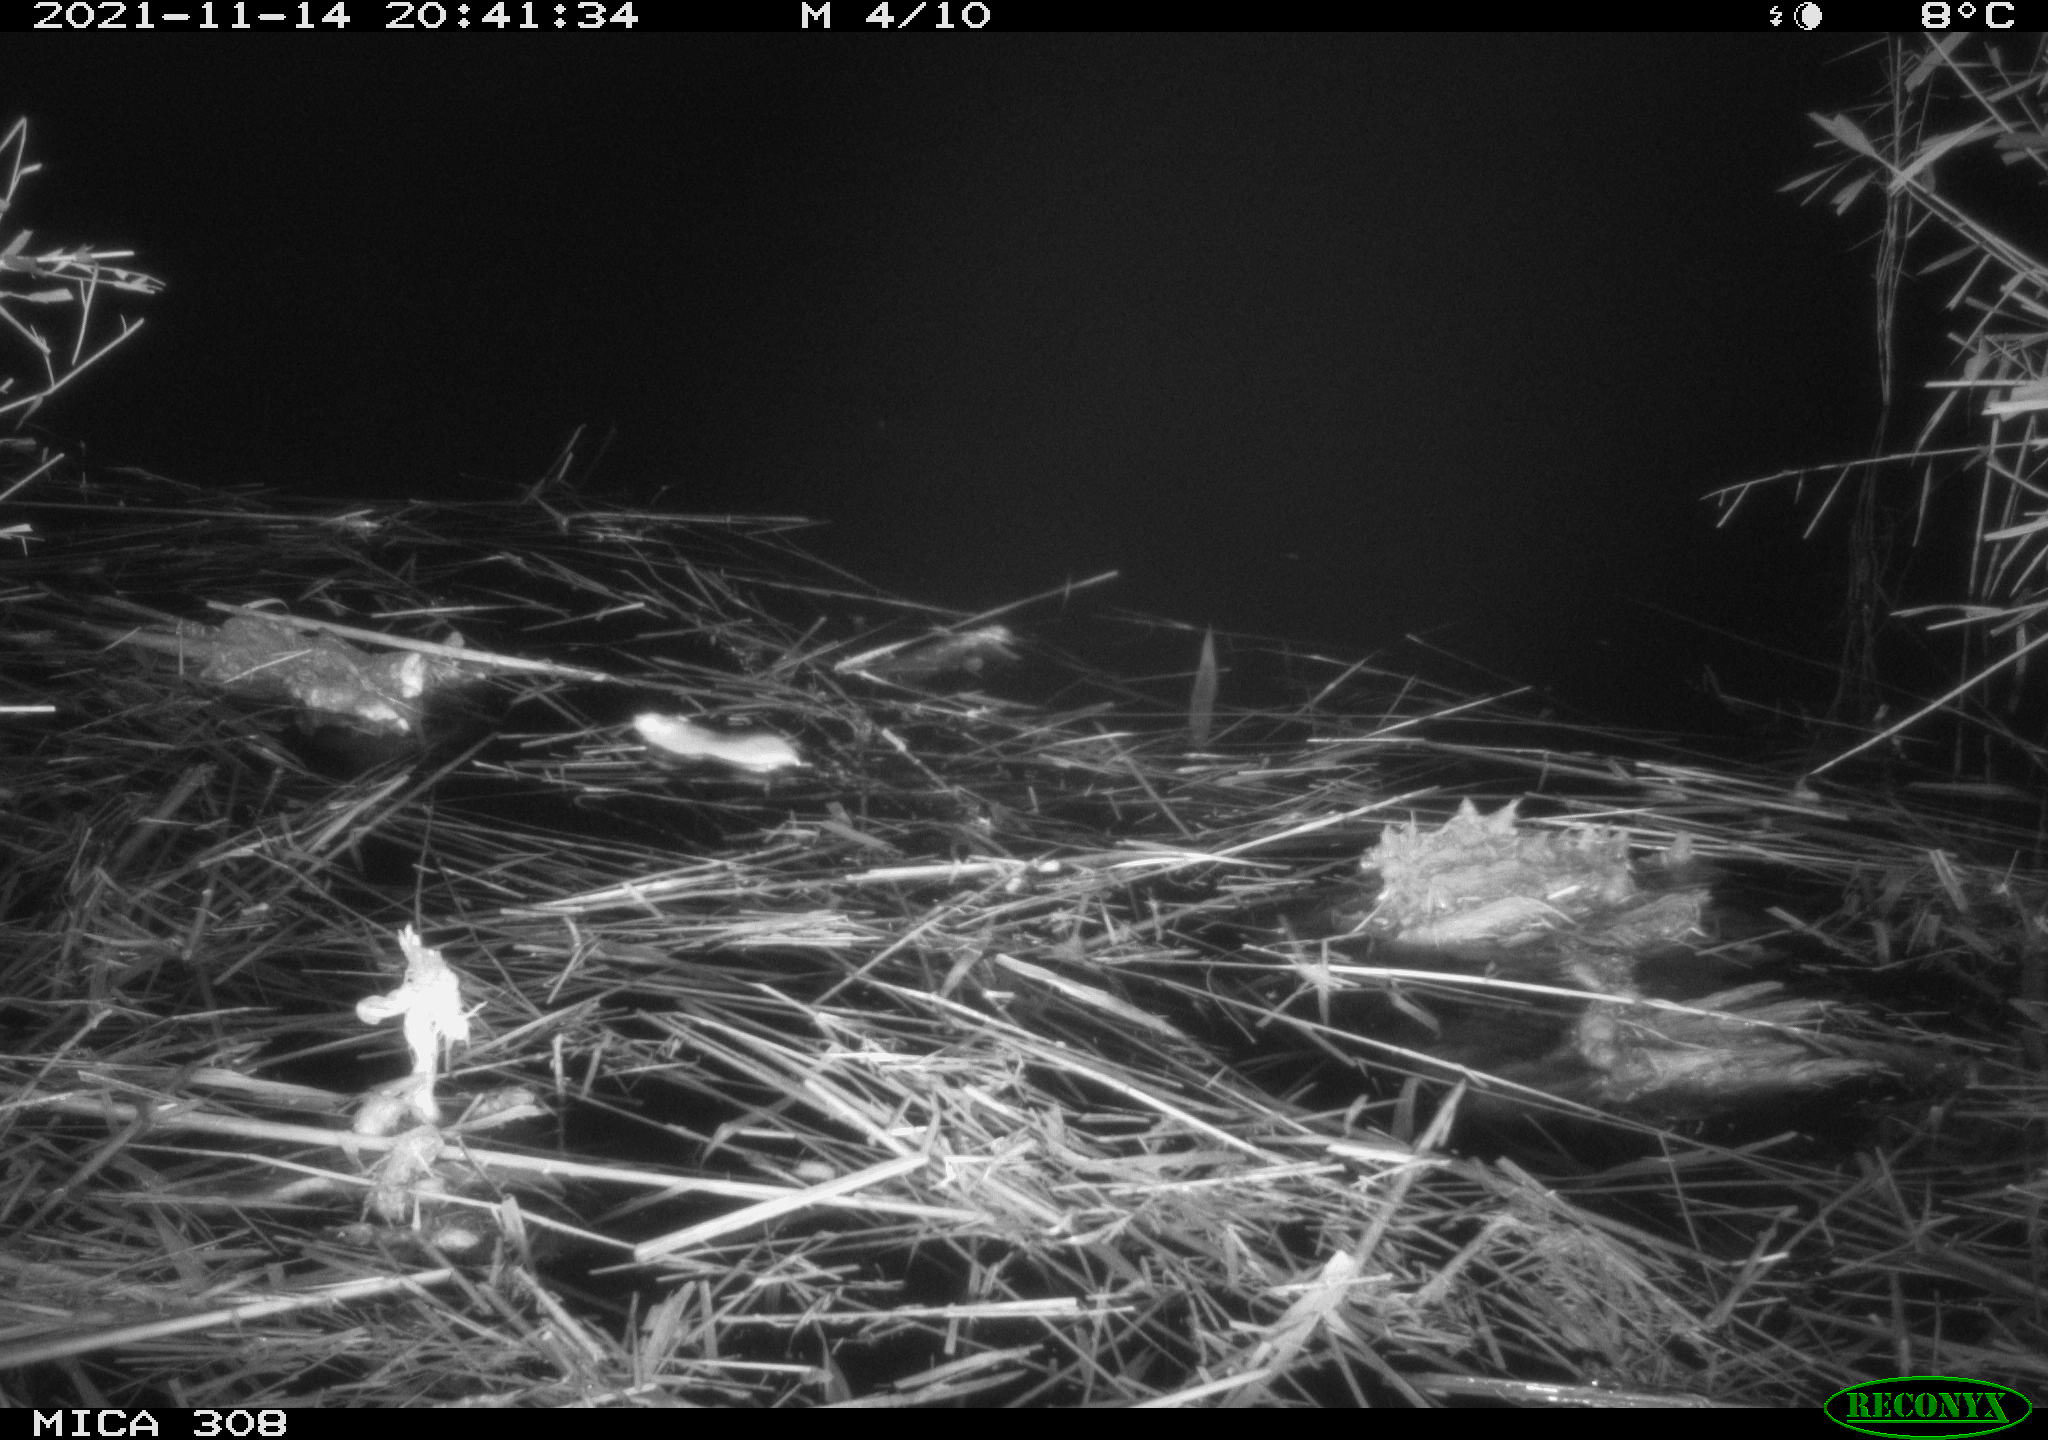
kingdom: Animalia
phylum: Chordata
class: Mammalia
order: Rodentia
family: Muridae
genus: Rattus
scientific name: Rattus norvegicus
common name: Brown rat
